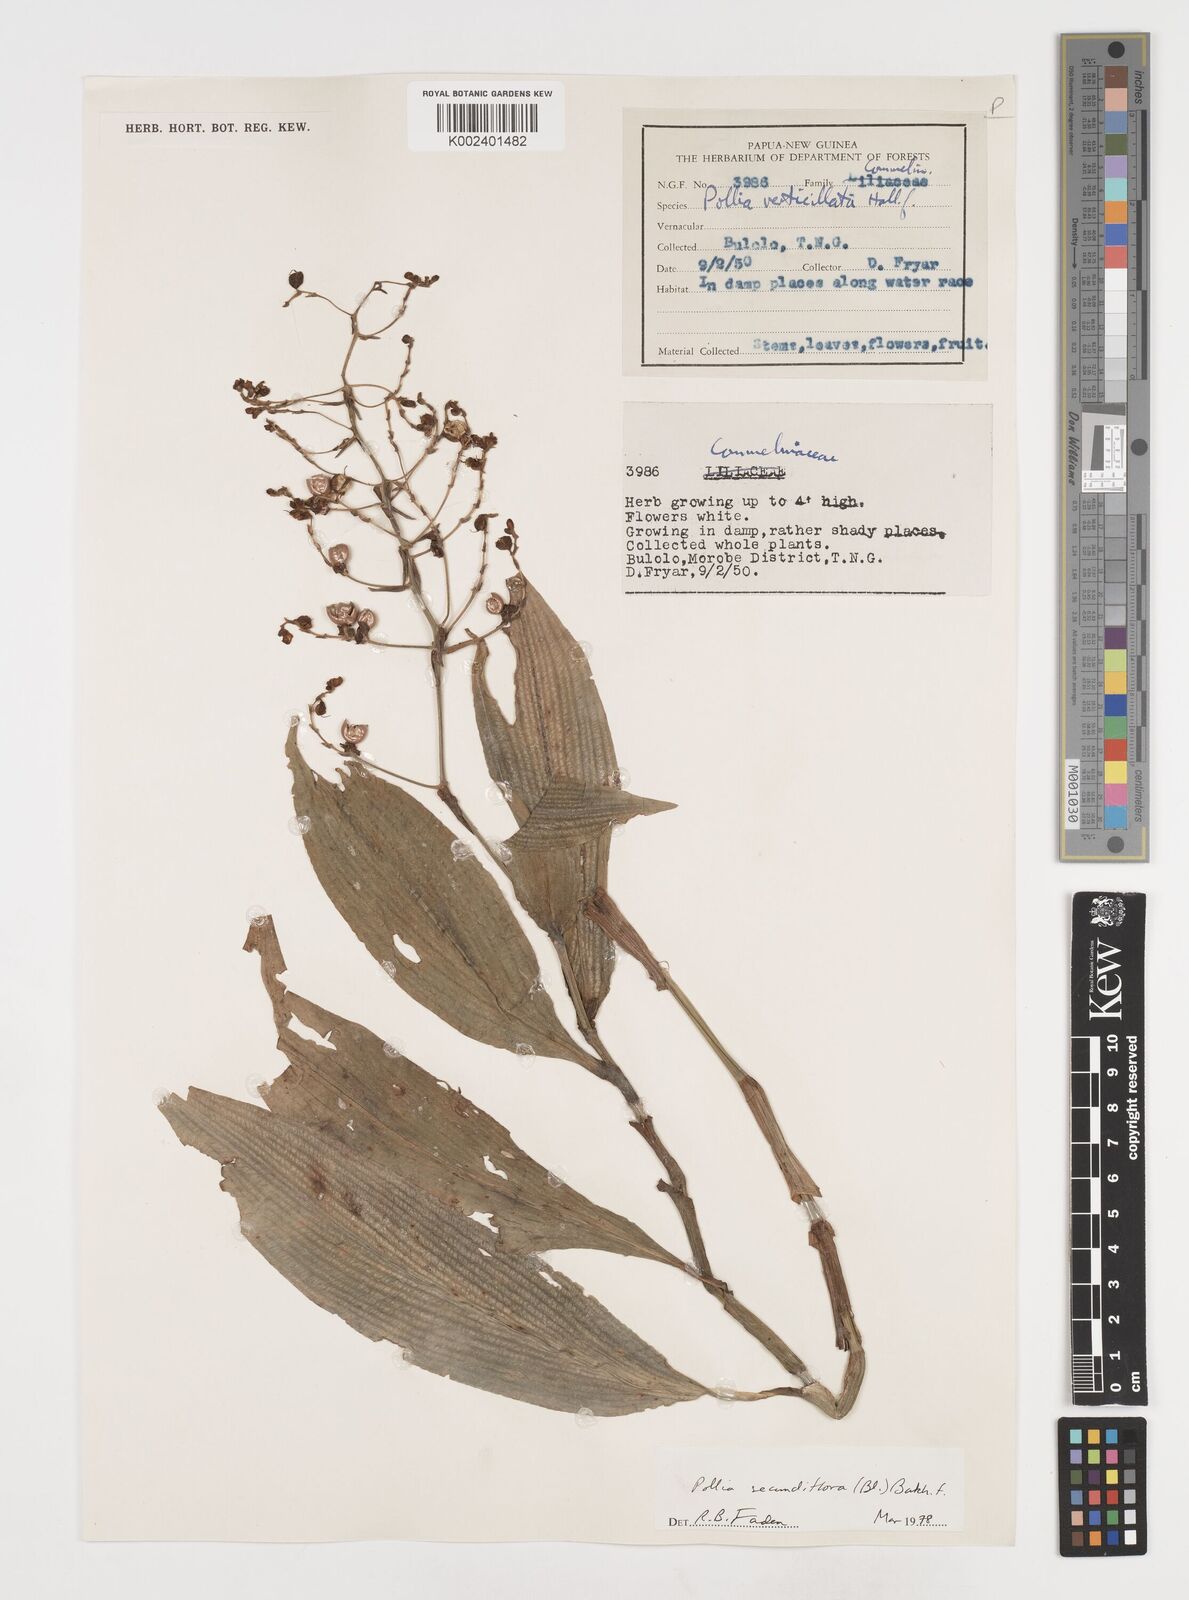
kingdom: Plantae
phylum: Tracheophyta
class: Liliopsida
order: Commelinales
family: Commelinaceae
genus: Pollia
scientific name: Pollia secundiflora
